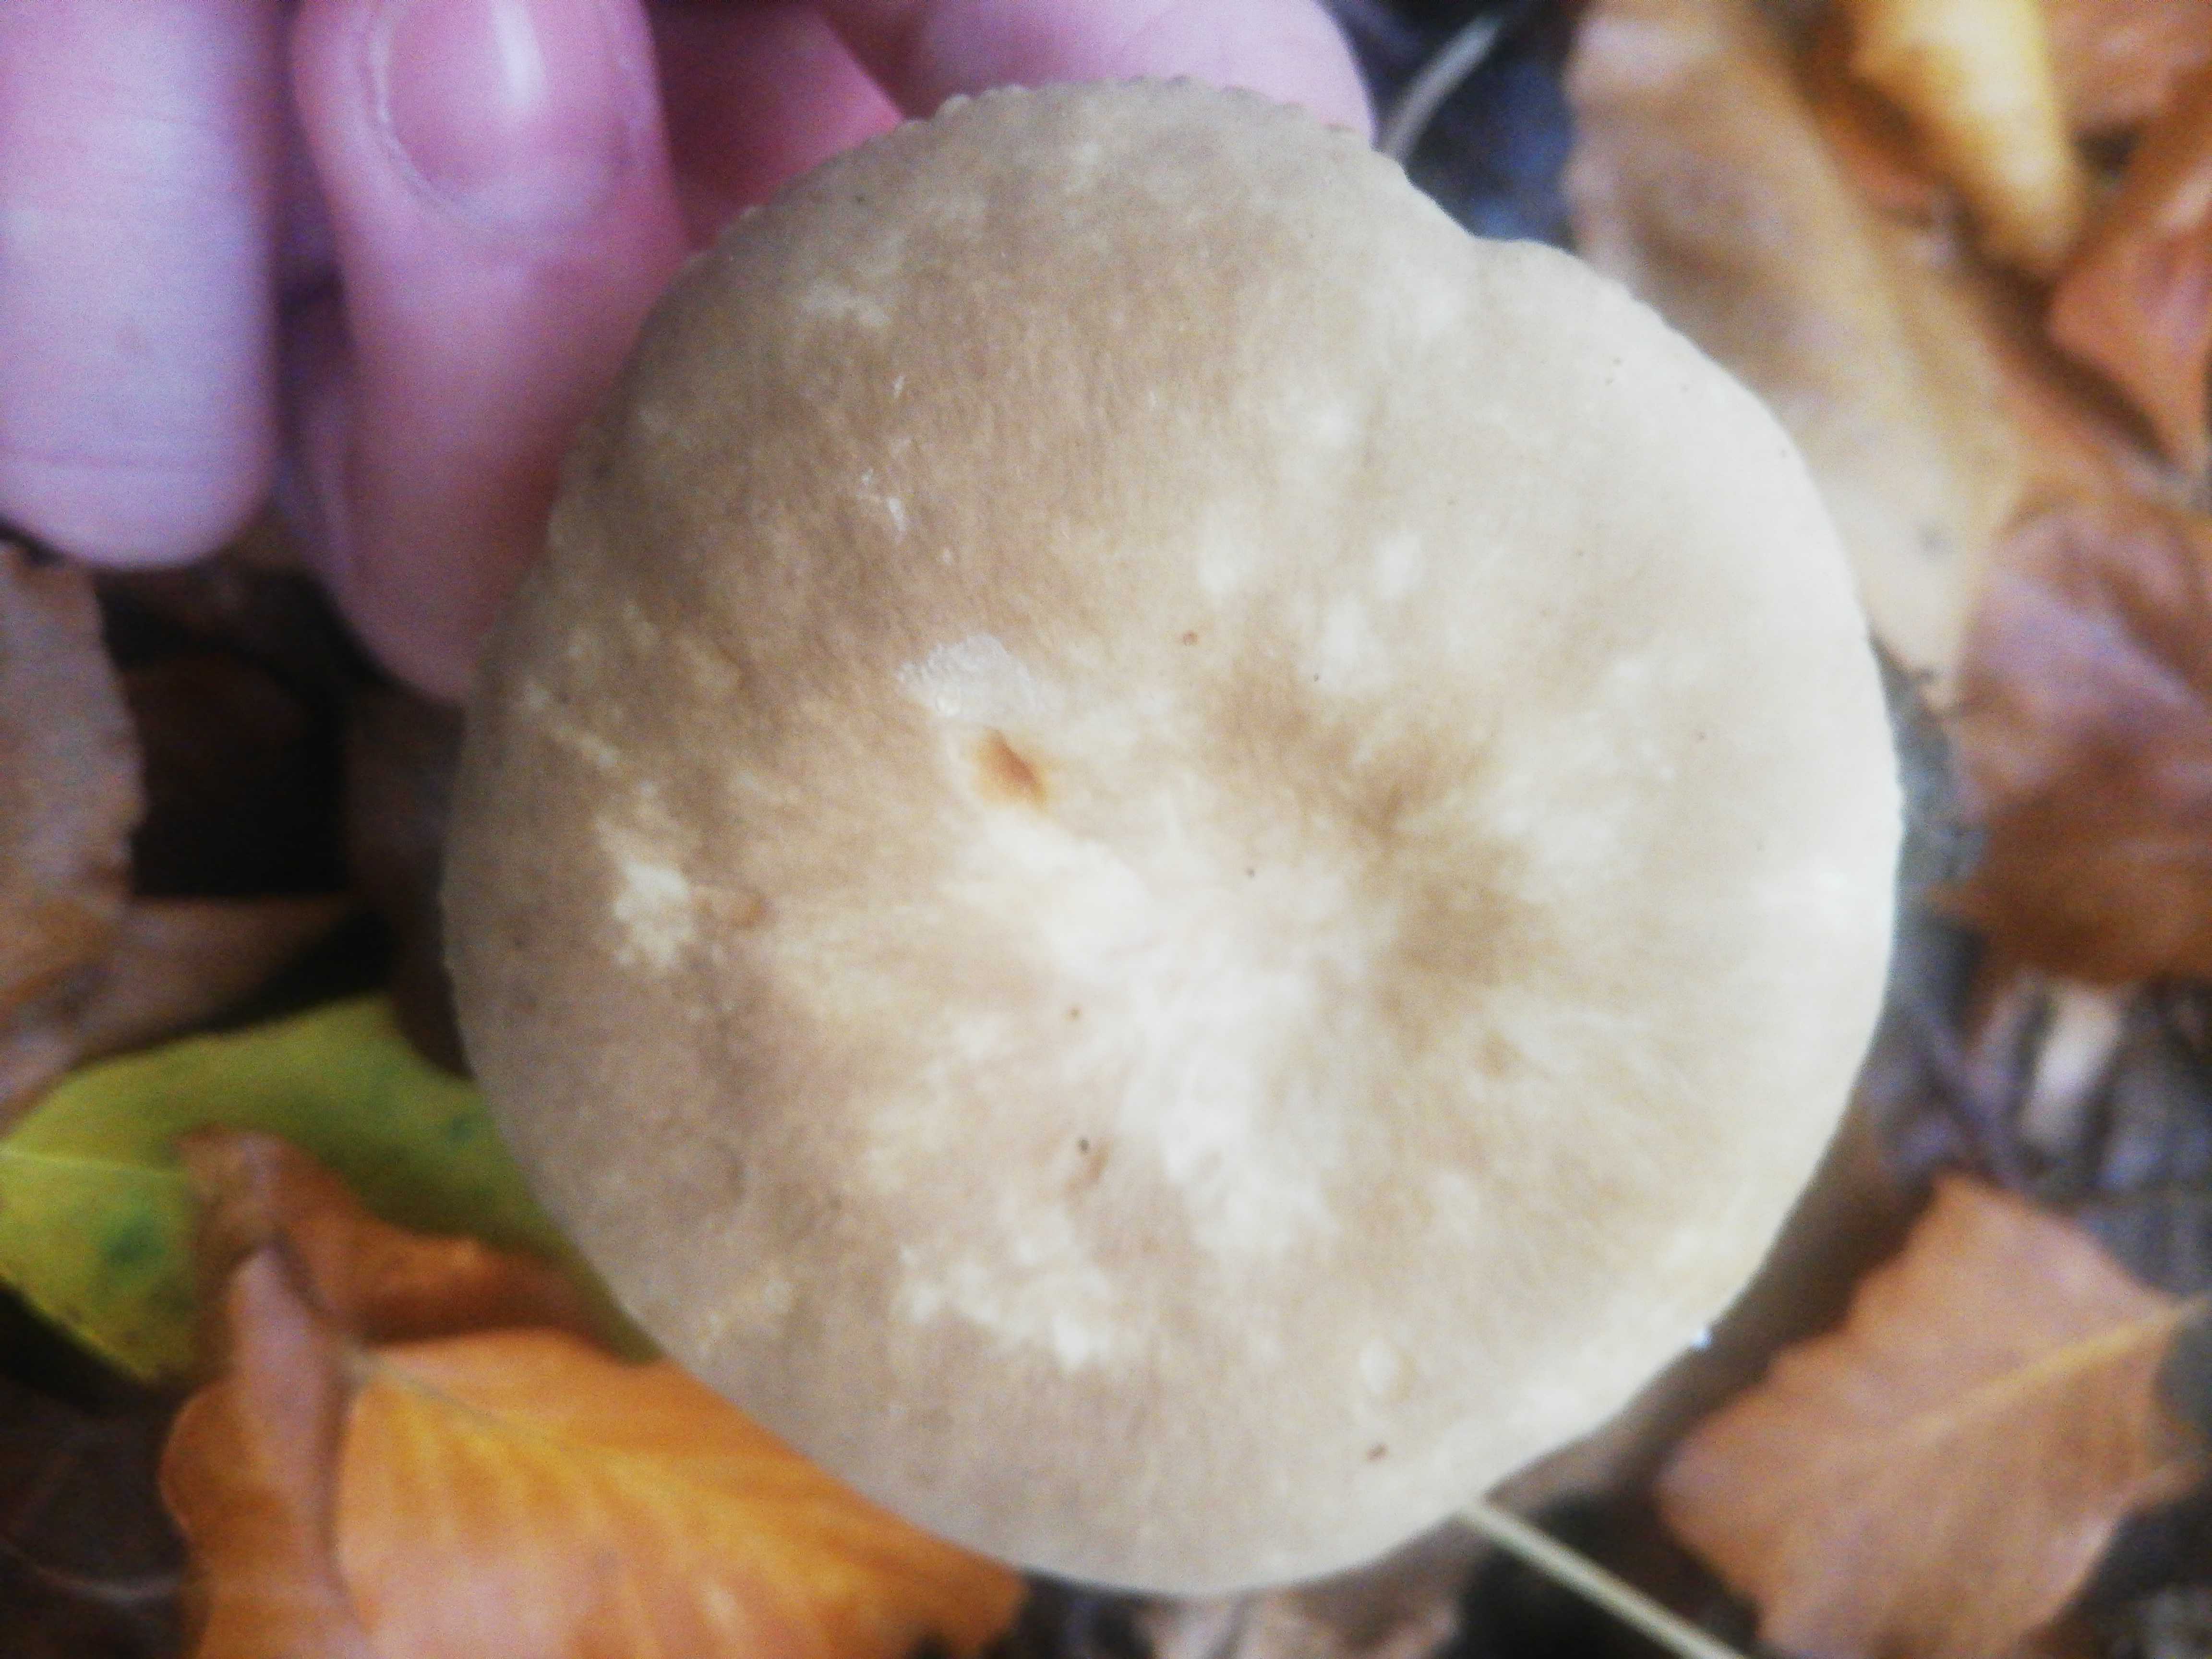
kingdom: Fungi
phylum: Basidiomycota
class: Agaricomycetes
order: Russulales
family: Russulaceae
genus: Lactarius
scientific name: Lactarius pterosporus
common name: vingesporet mælkehat
